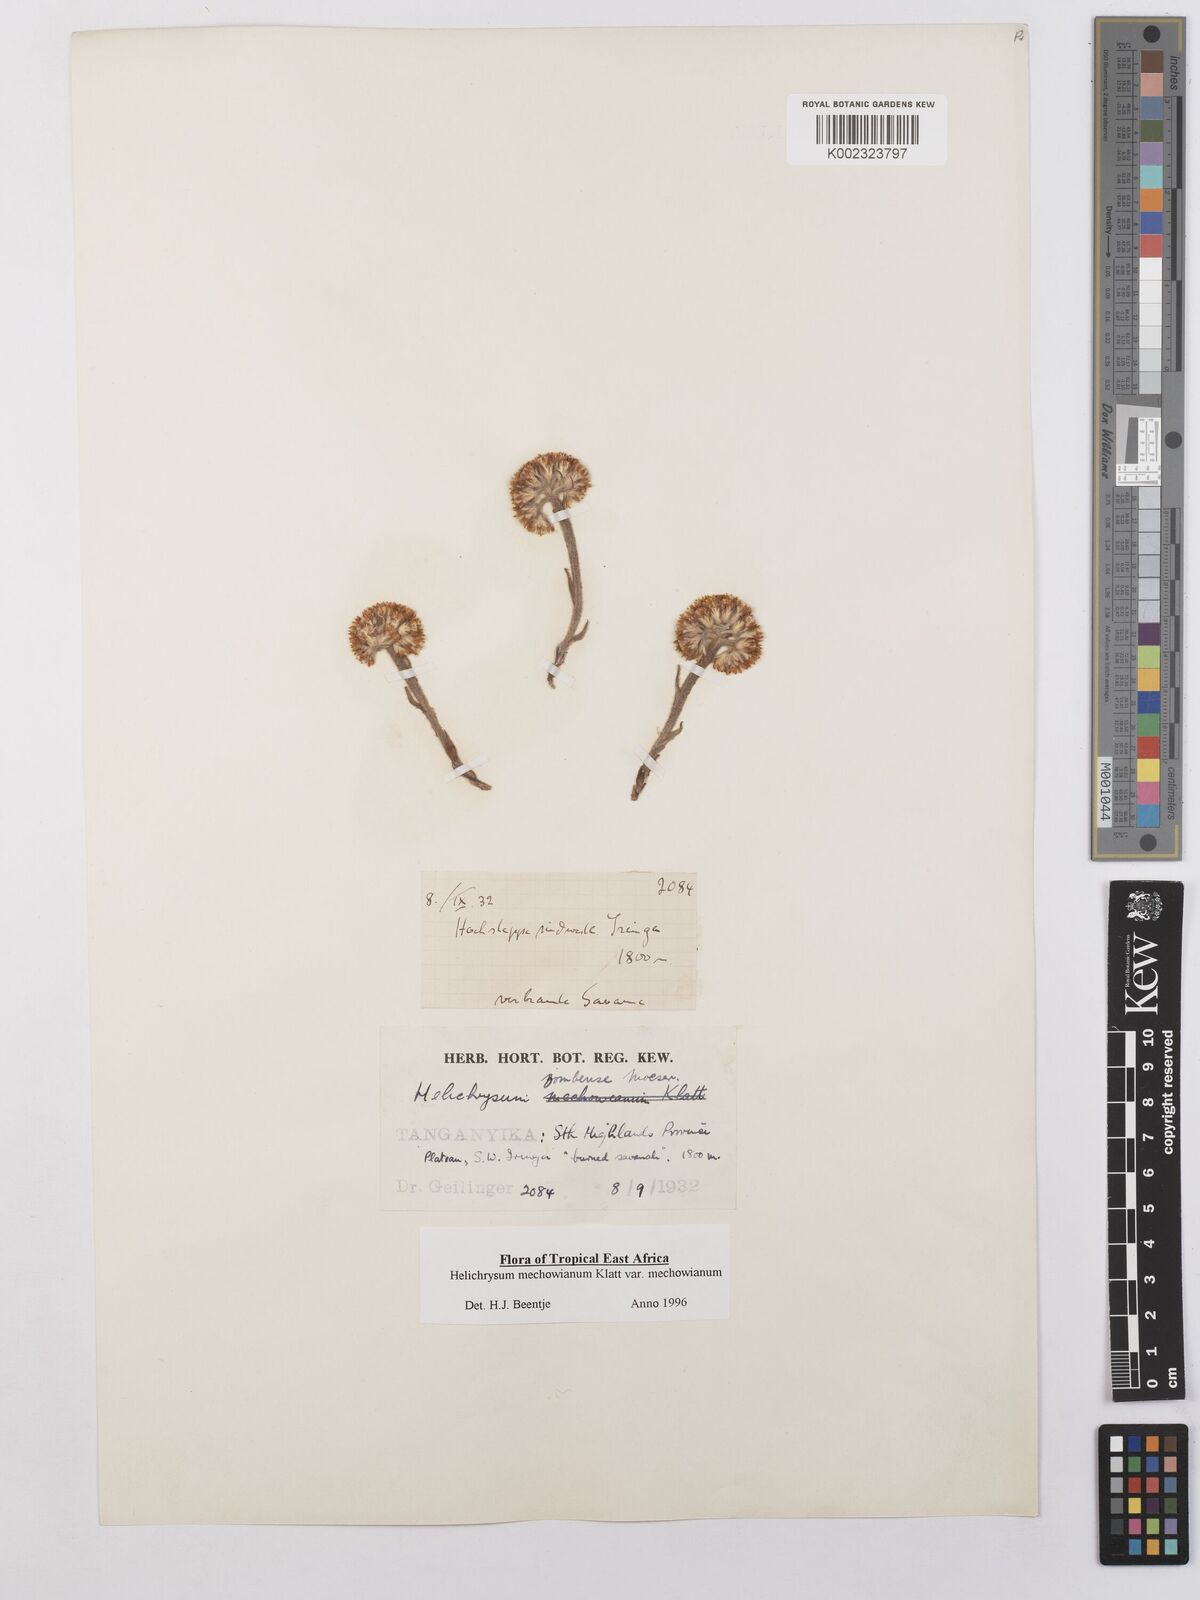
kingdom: Plantae
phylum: Tracheophyta
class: Magnoliopsida
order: Asterales
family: Asteraceae
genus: Helichrysum
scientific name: Helichrysum mechowianum
